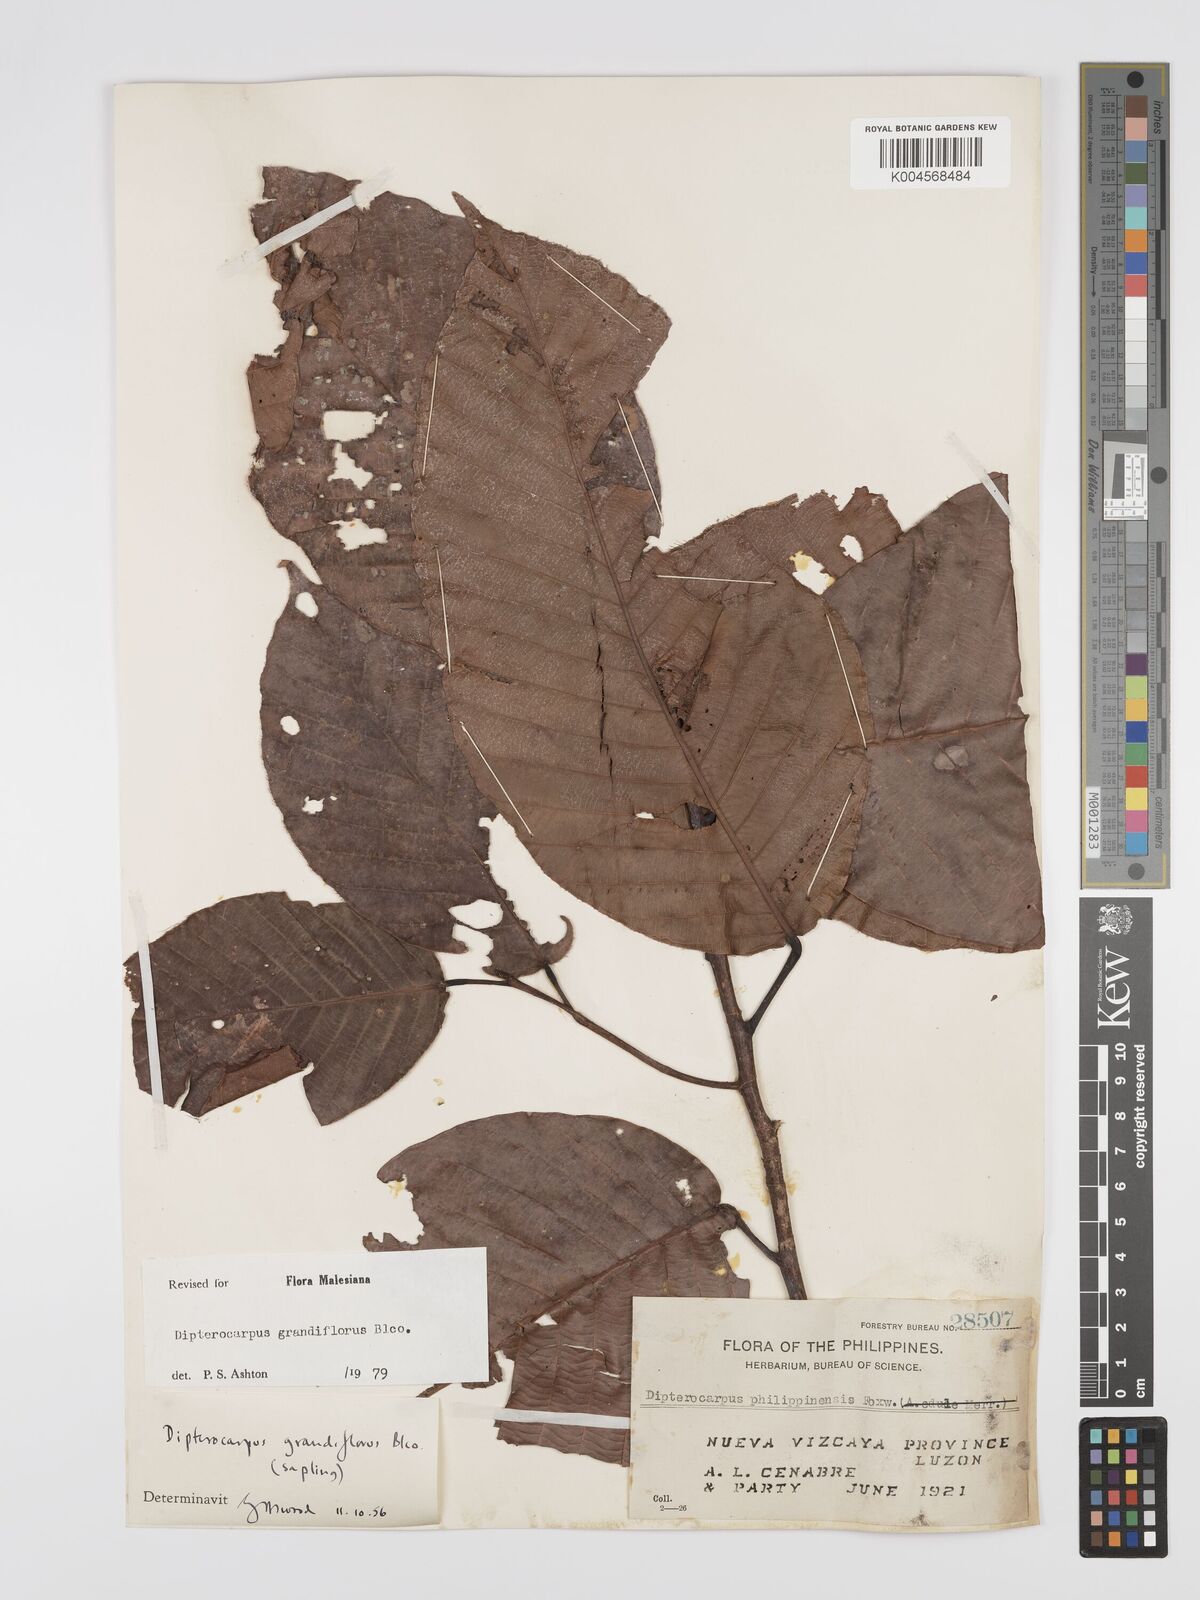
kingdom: Plantae
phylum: Tracheophyta
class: Magnoliopsida
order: Malvales
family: Dipterocarpaceae
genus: Dipterocarpus
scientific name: Dipterocarpus grandiflorus
